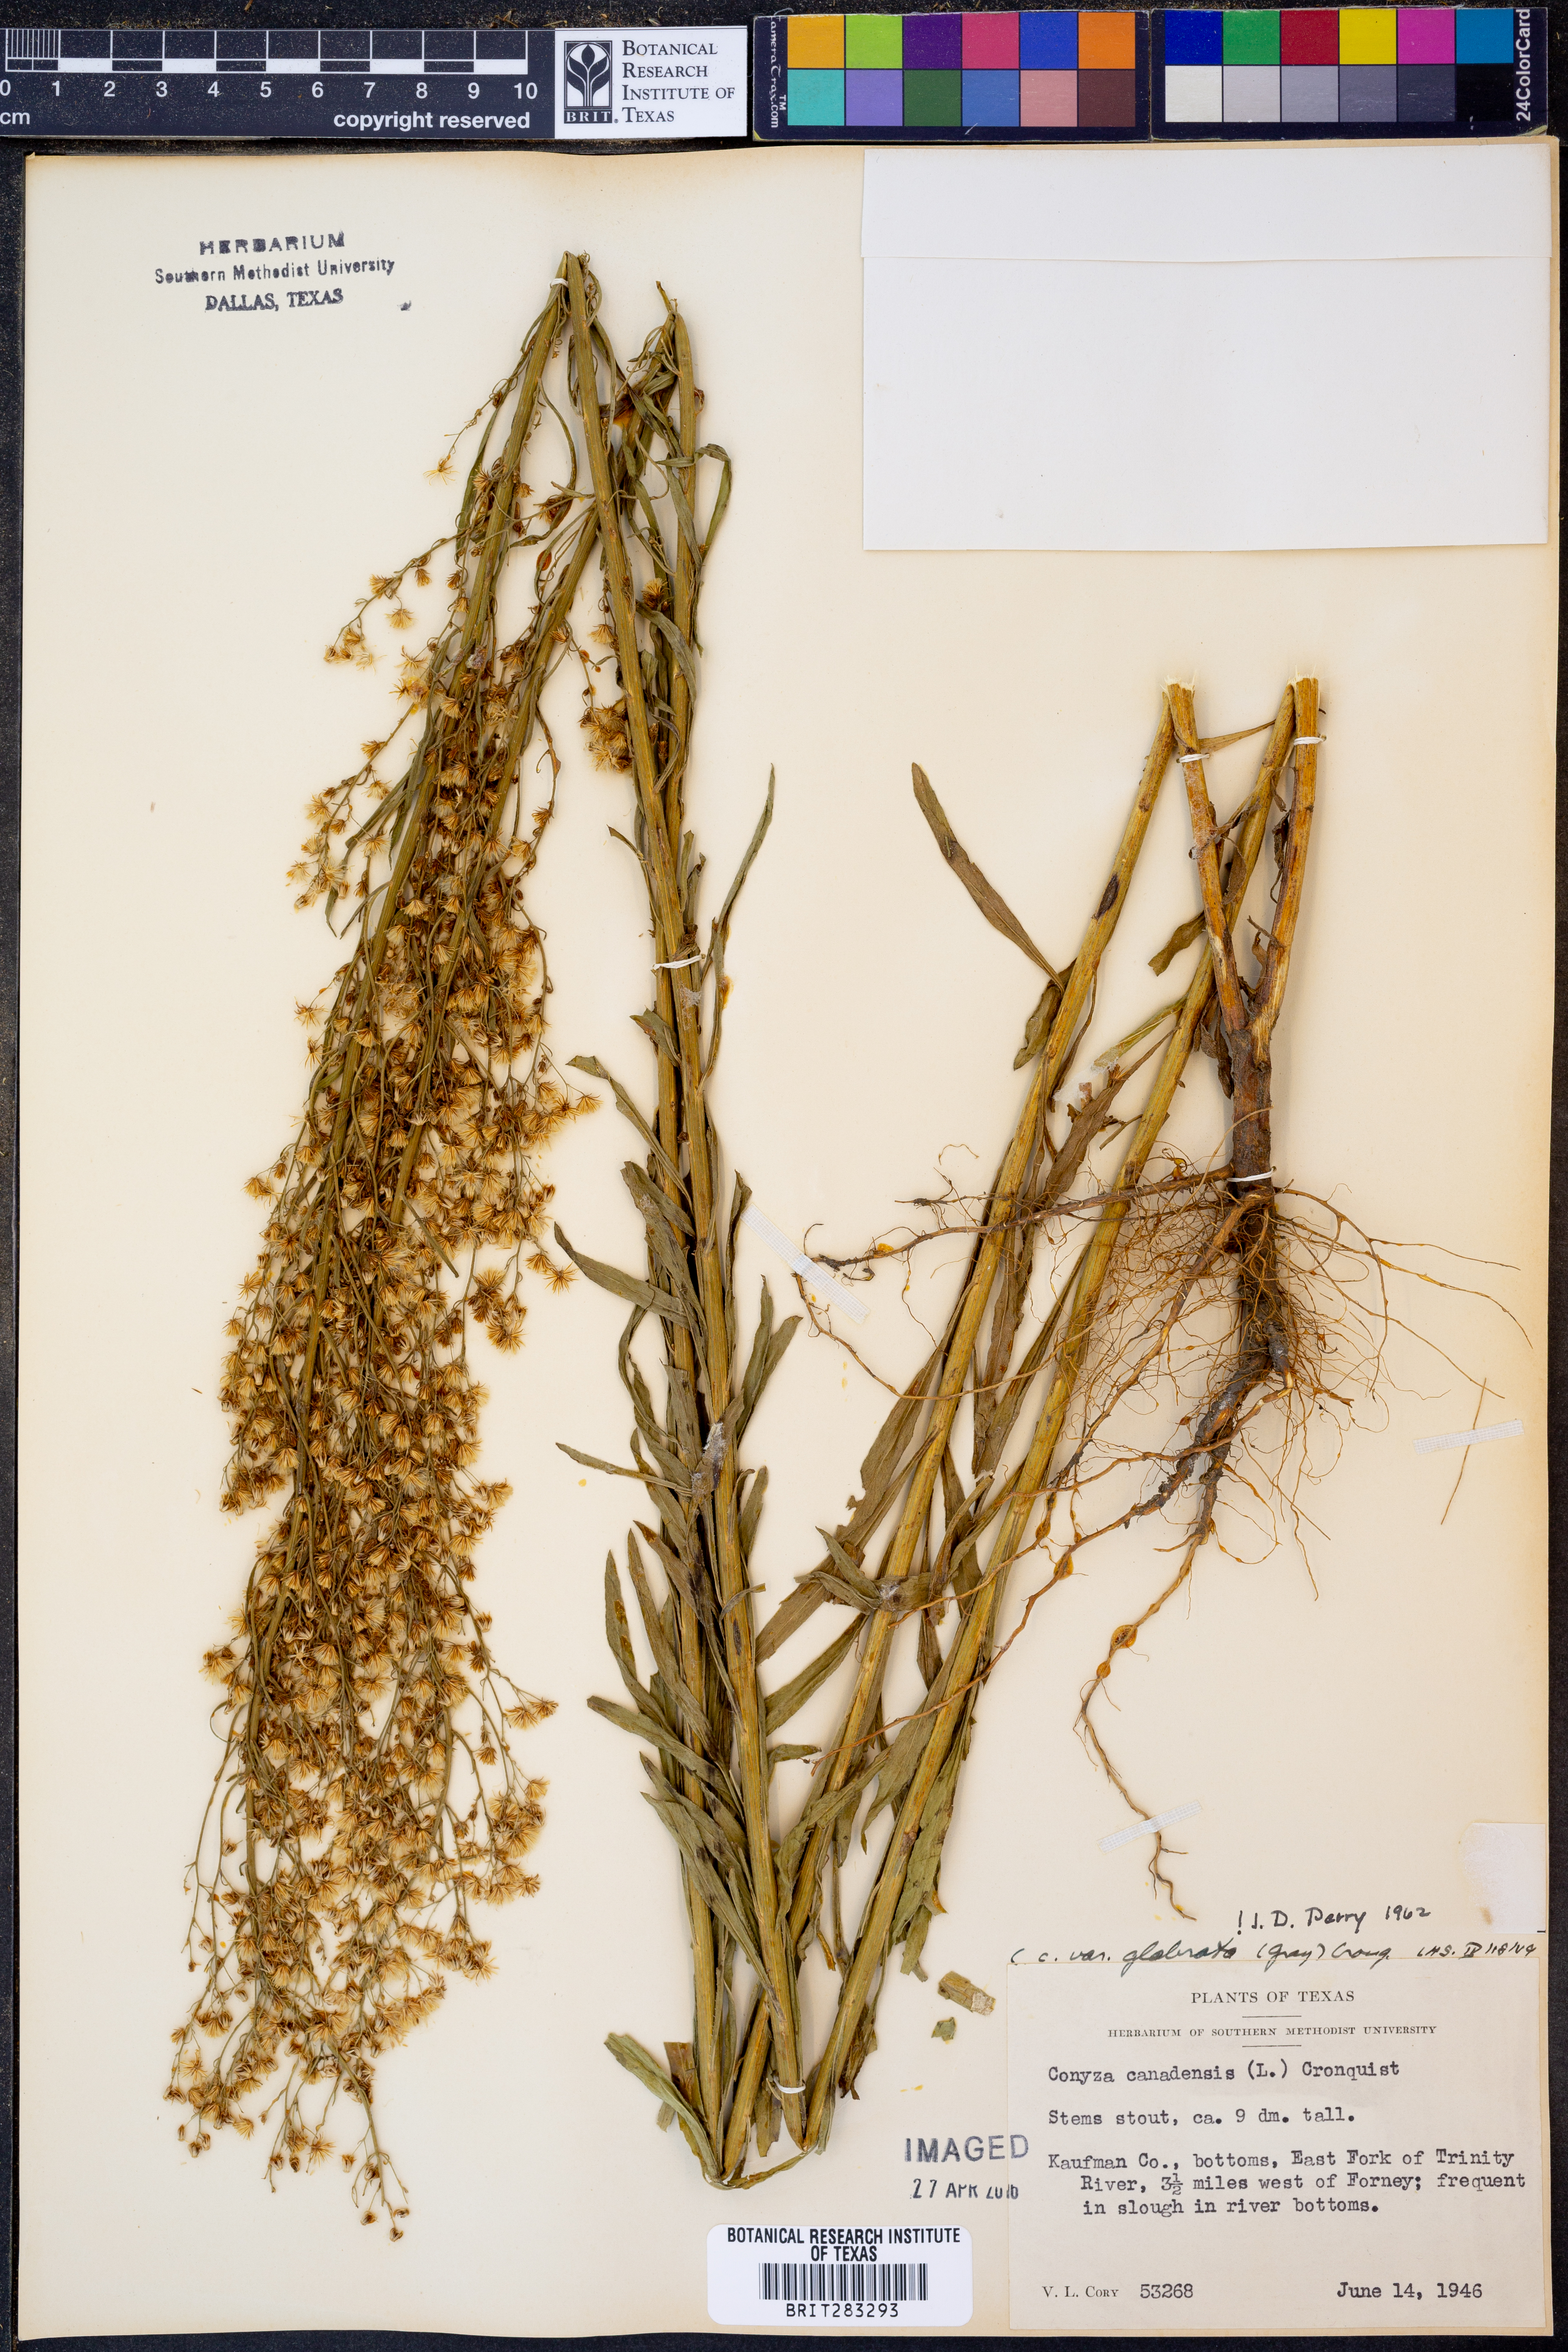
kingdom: Plantae
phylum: Tracheophyta
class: Magnoliopsida
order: Asterales
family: Asteraceae
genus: Erigeron
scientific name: Erigeron canadensis
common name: Canadian fleabane
